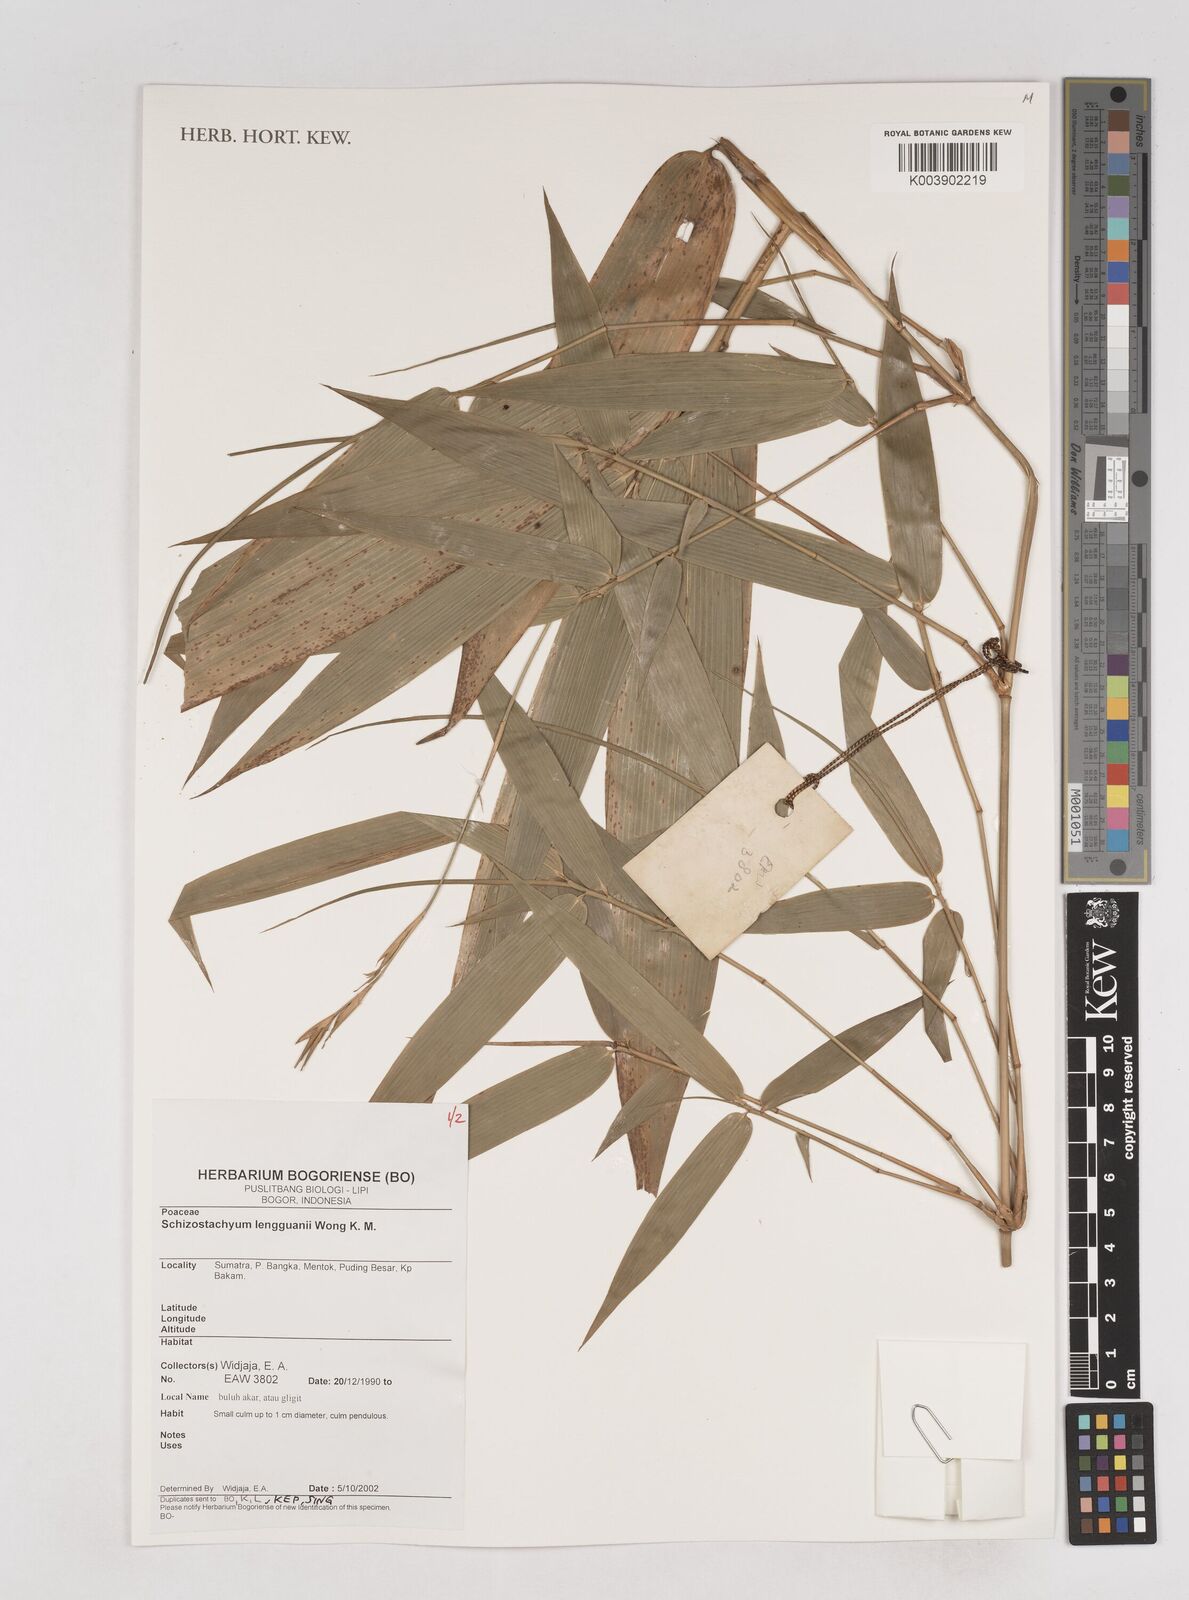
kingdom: Plantae
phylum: Tracheophyta
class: Liliopsida
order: Poales
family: Poaceae
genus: Schizostachyum
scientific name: Schizostachyum lengguanii
